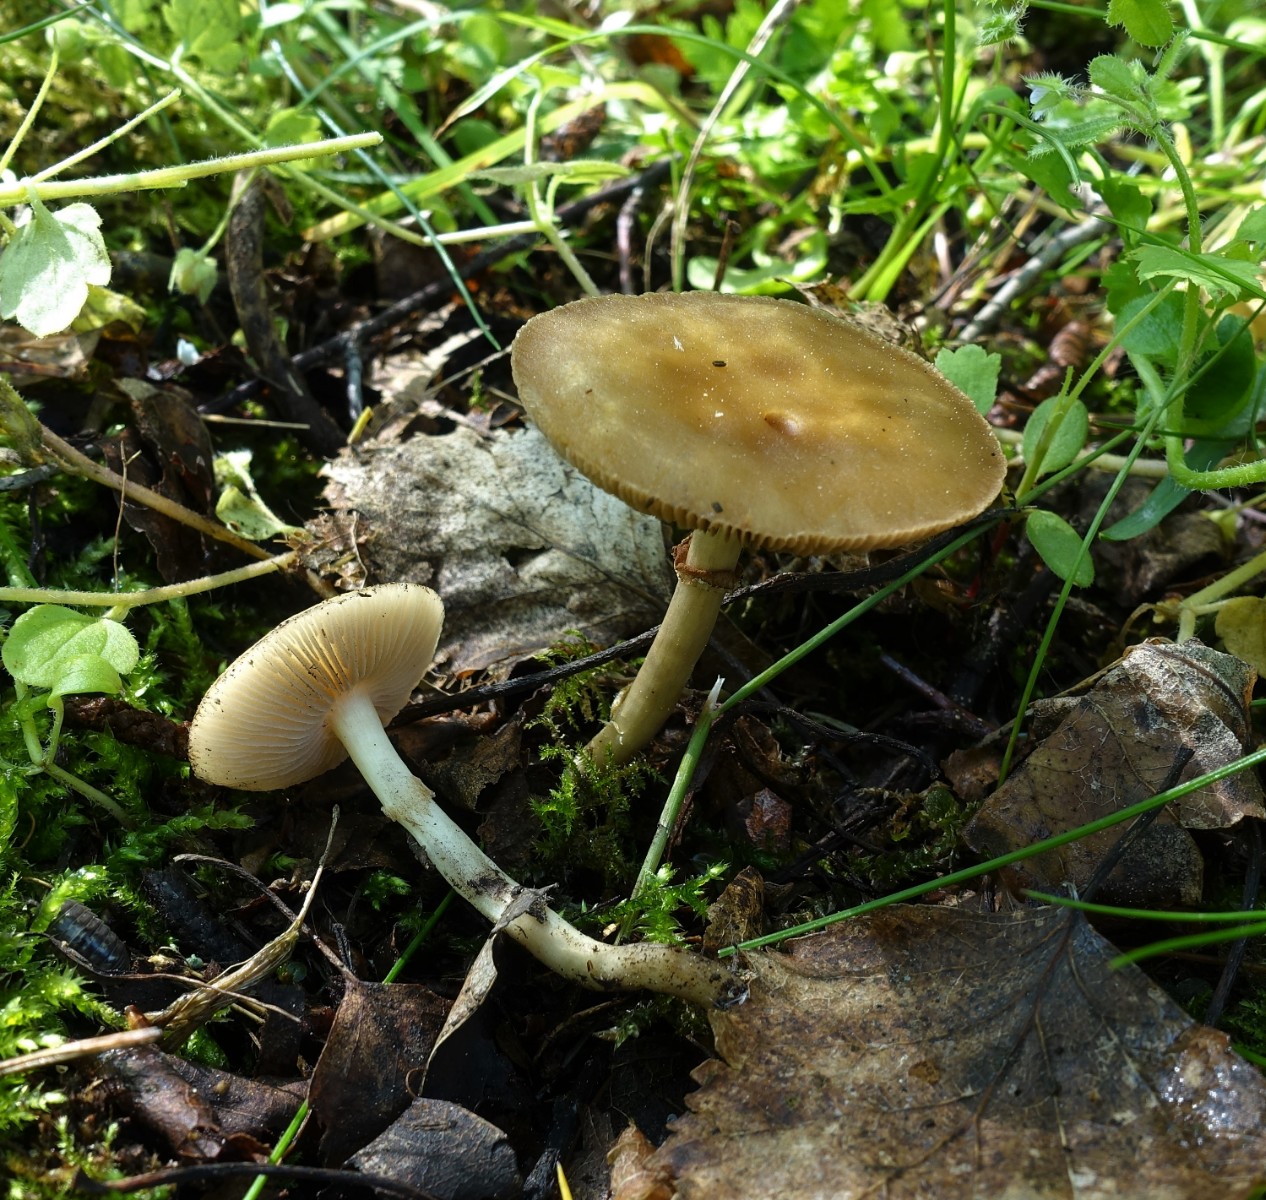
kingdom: Fungi
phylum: Basidiomycota
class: Agaricomycetes
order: Agaricales
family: Strophariaceae
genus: Agrocybe
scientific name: Agrocybe praecox
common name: tidlig agerhat
